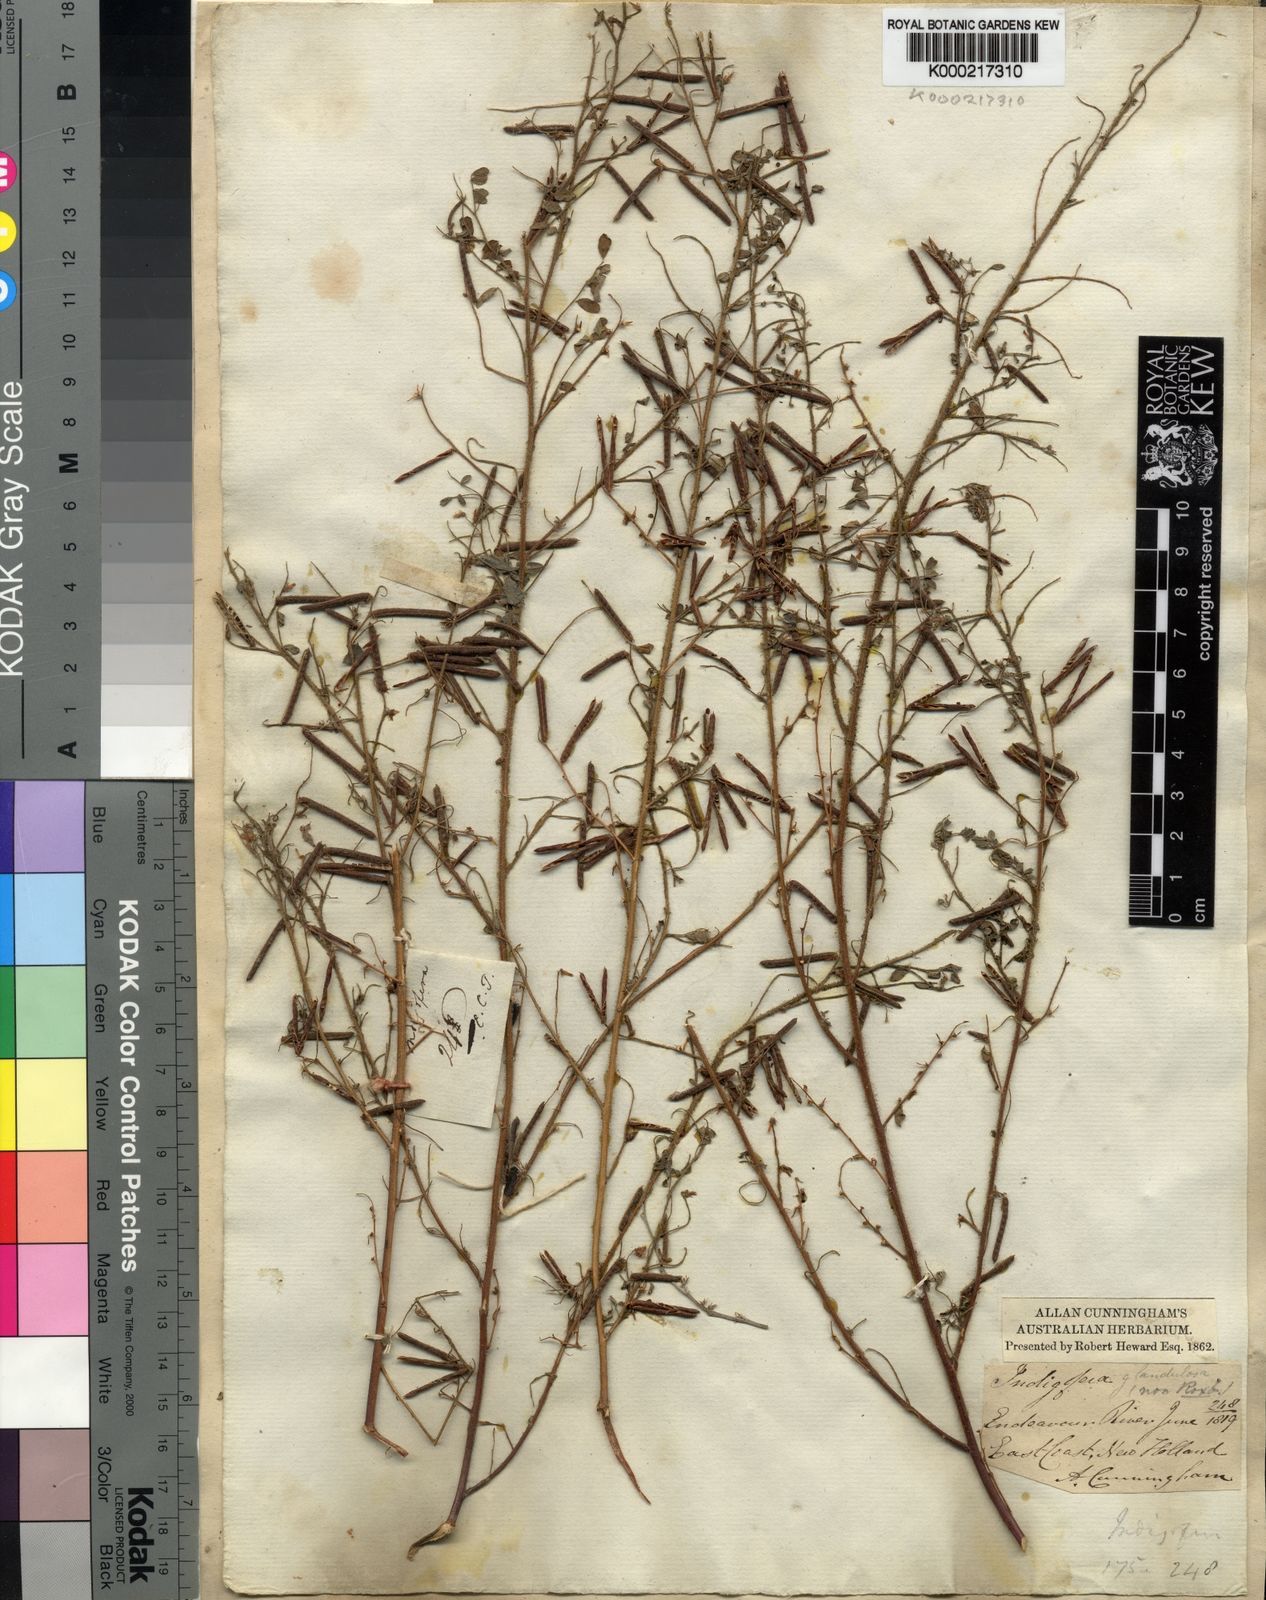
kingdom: Plantae
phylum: Tracheophyta
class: Magnoliopsida
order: Fabales
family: Fabaceae
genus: Indigofera
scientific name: Indigofera colutea
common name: Rusty indigo
